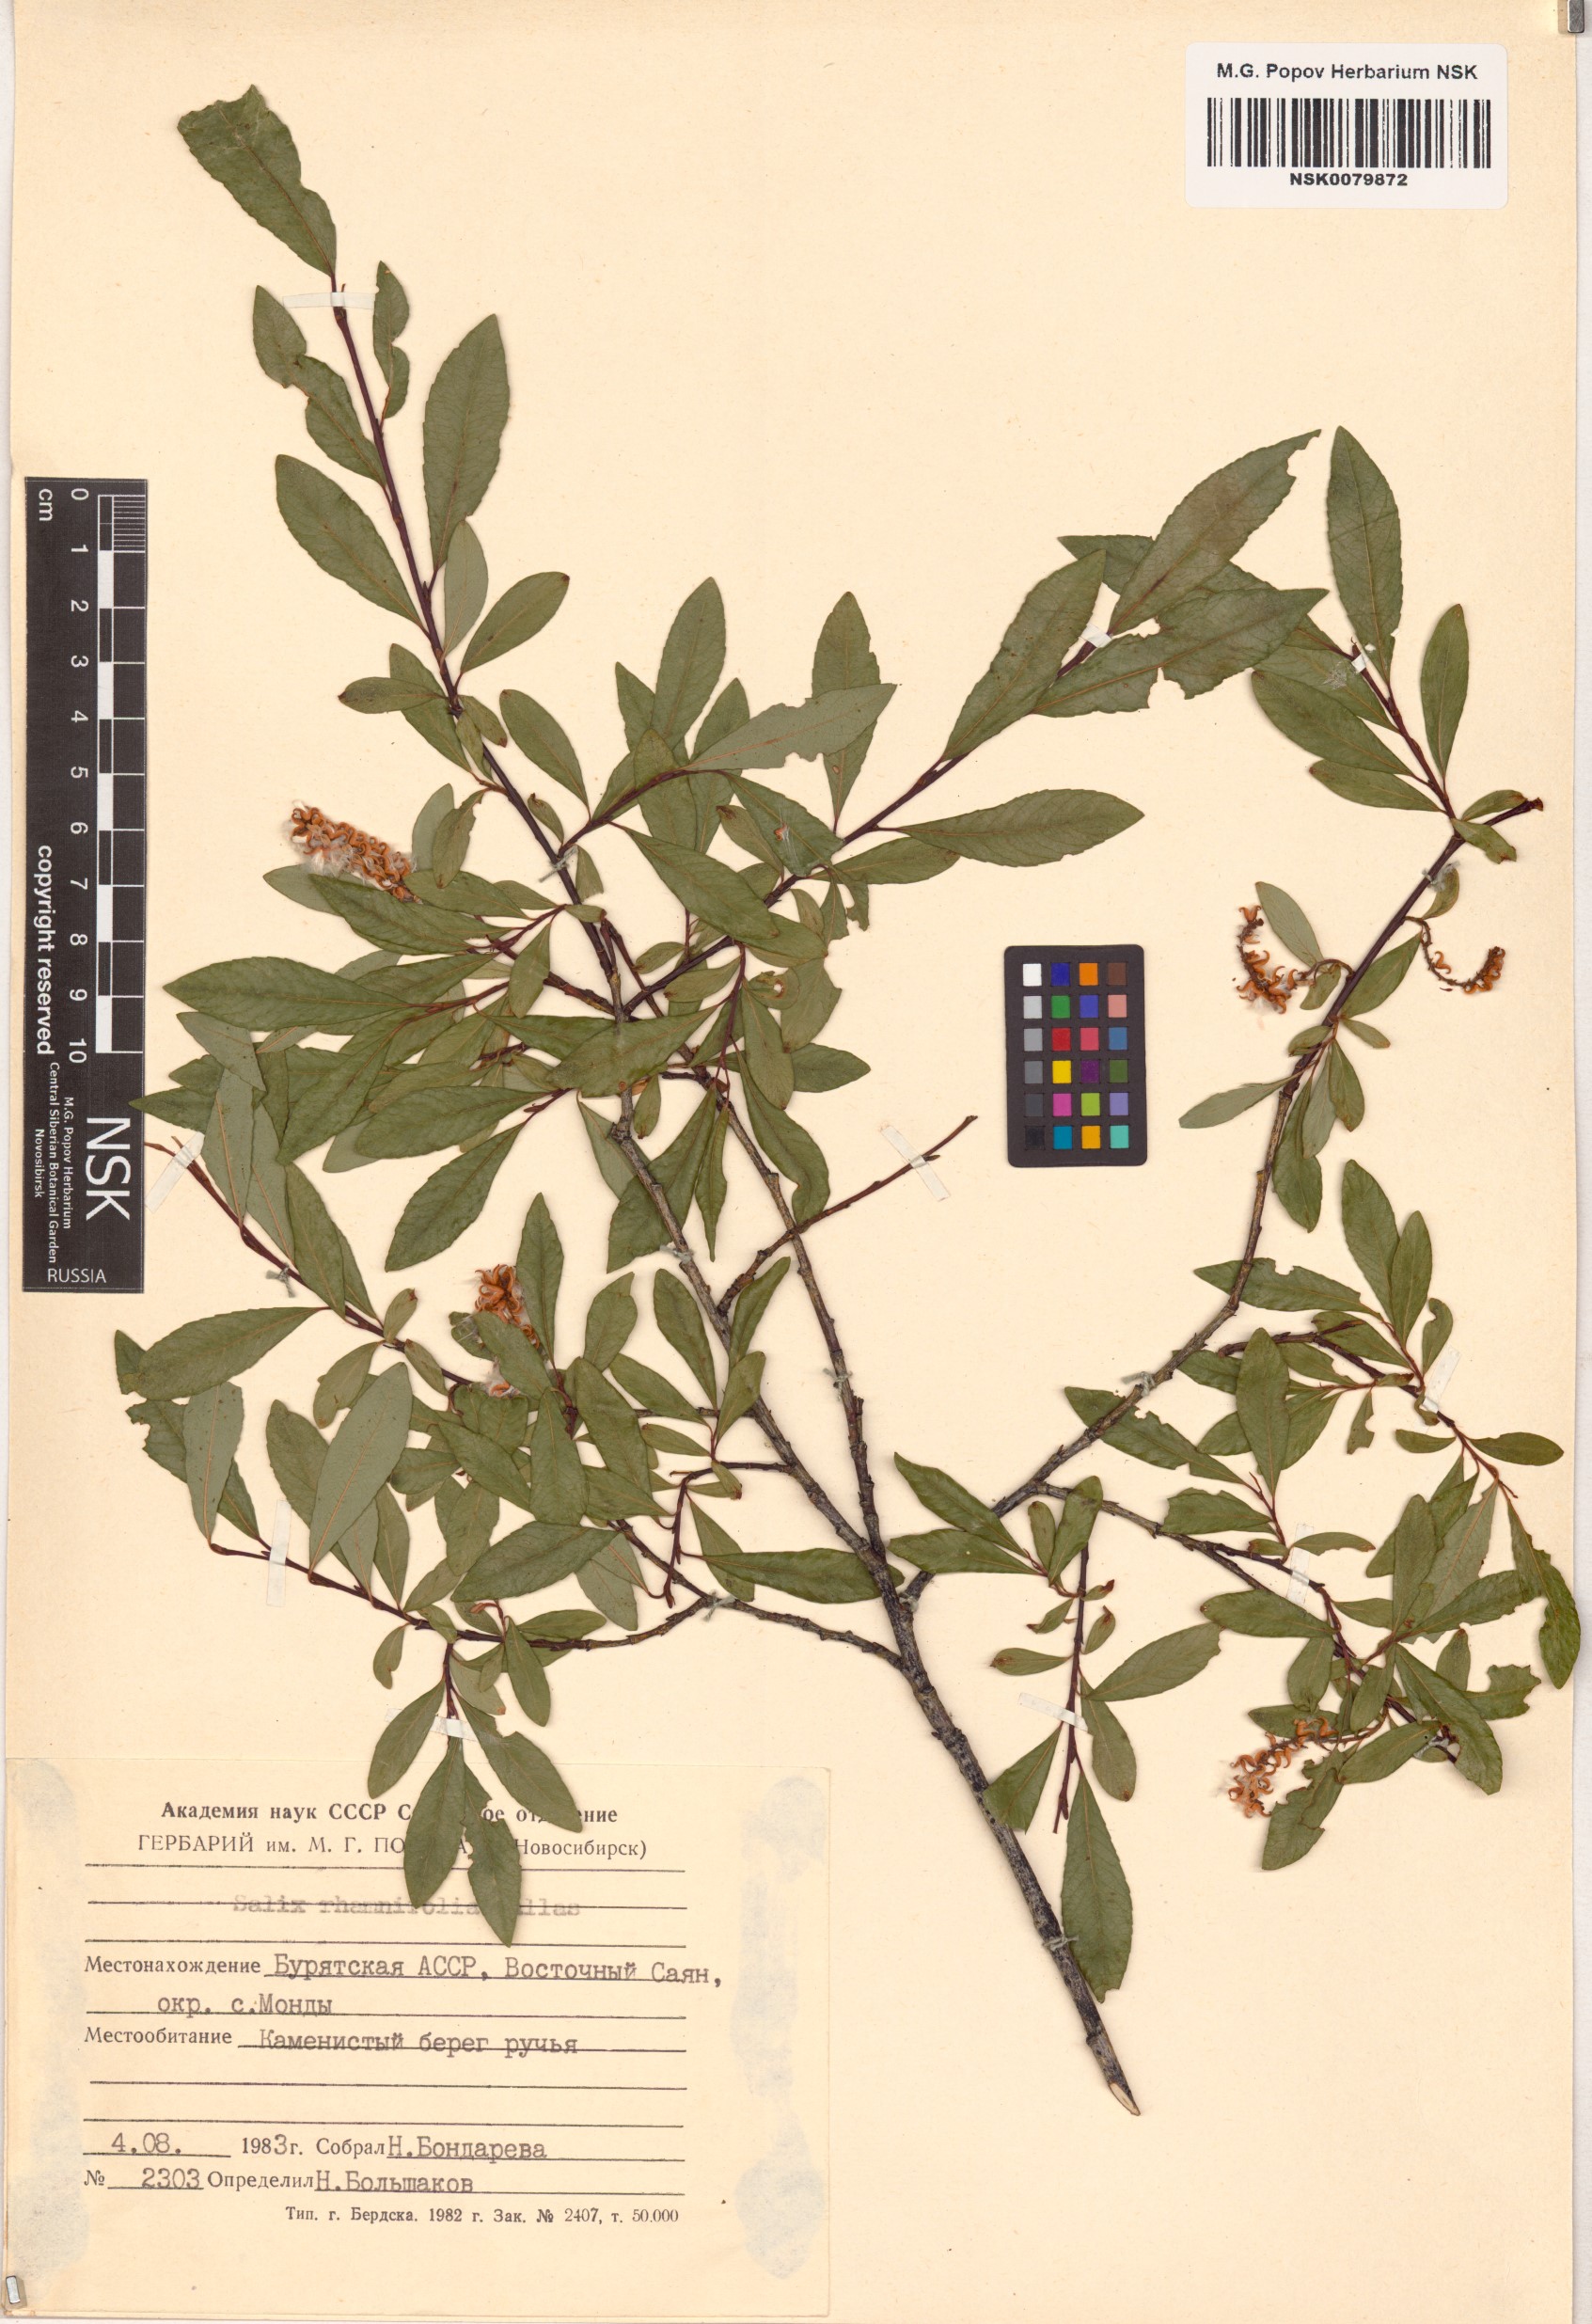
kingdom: Plantae
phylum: Tracheophyta
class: Magnoliopsida
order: Malpighiales
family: Salicaceae
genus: Salix
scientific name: Salix rhamnifolia
